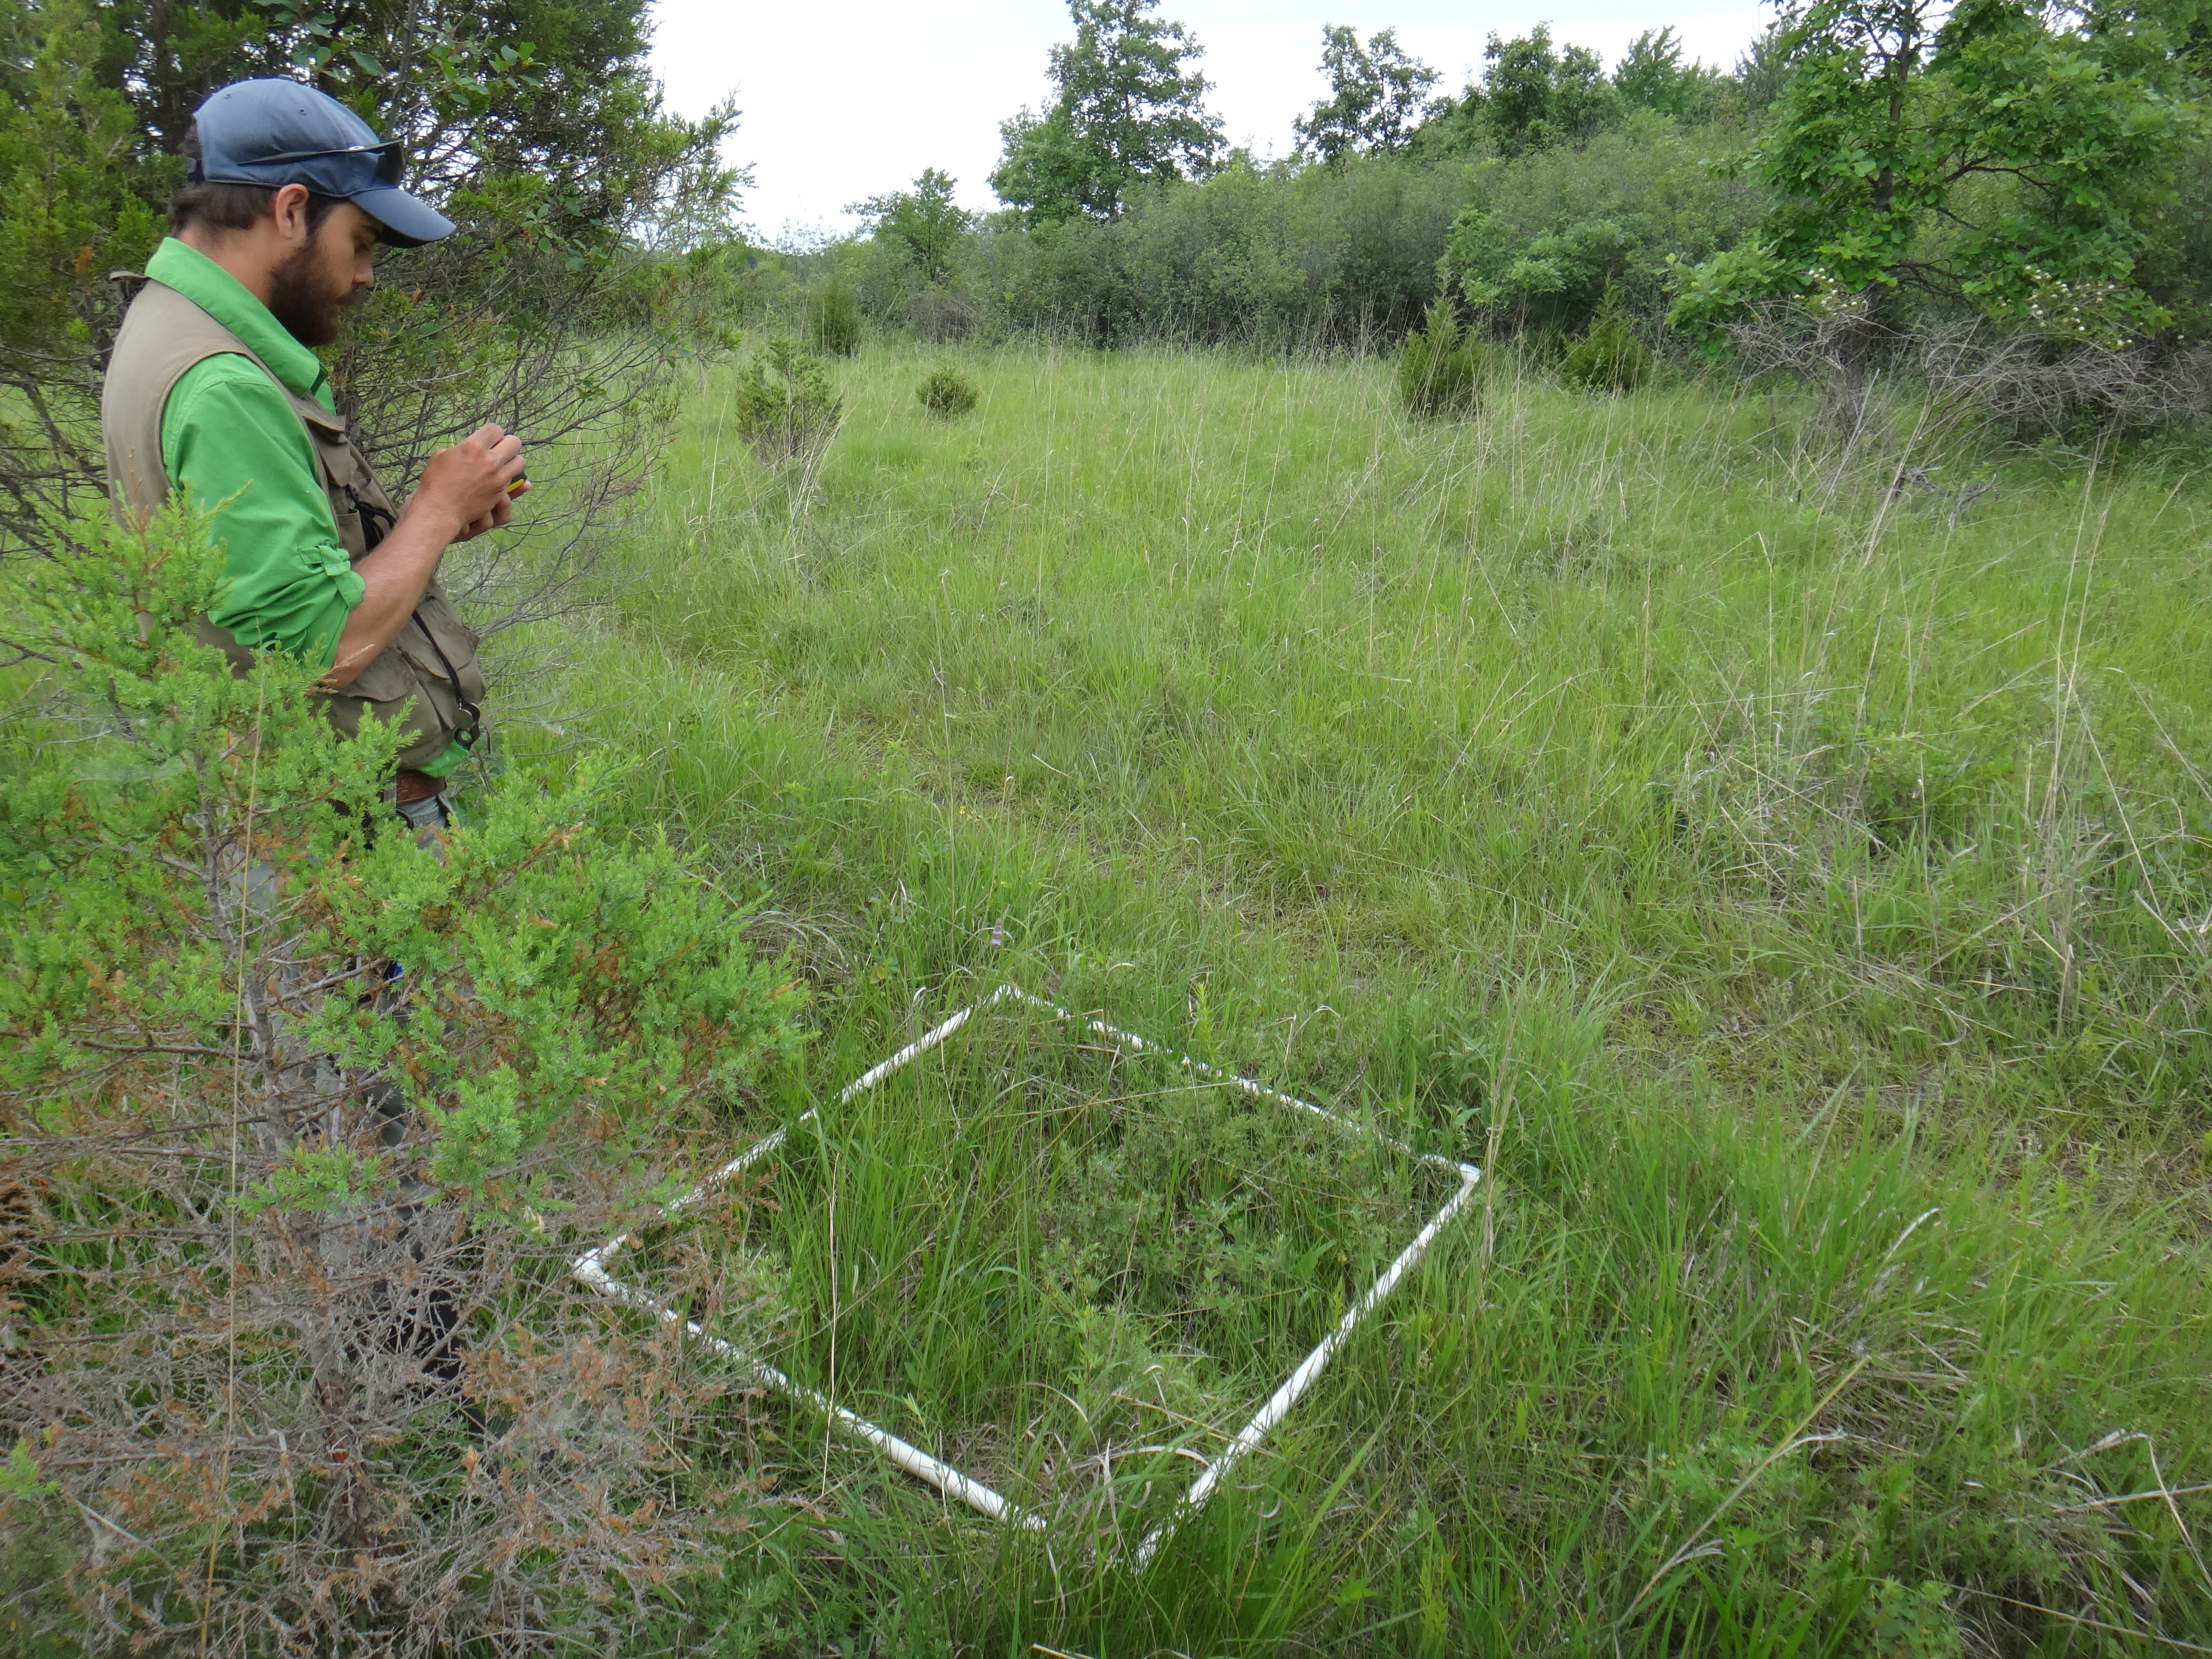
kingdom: Plantae
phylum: Tracheophyta
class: Liliopsida
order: Poales
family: Cyperaceae
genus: Carex
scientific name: Carex tetanica
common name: Rigid sedge
